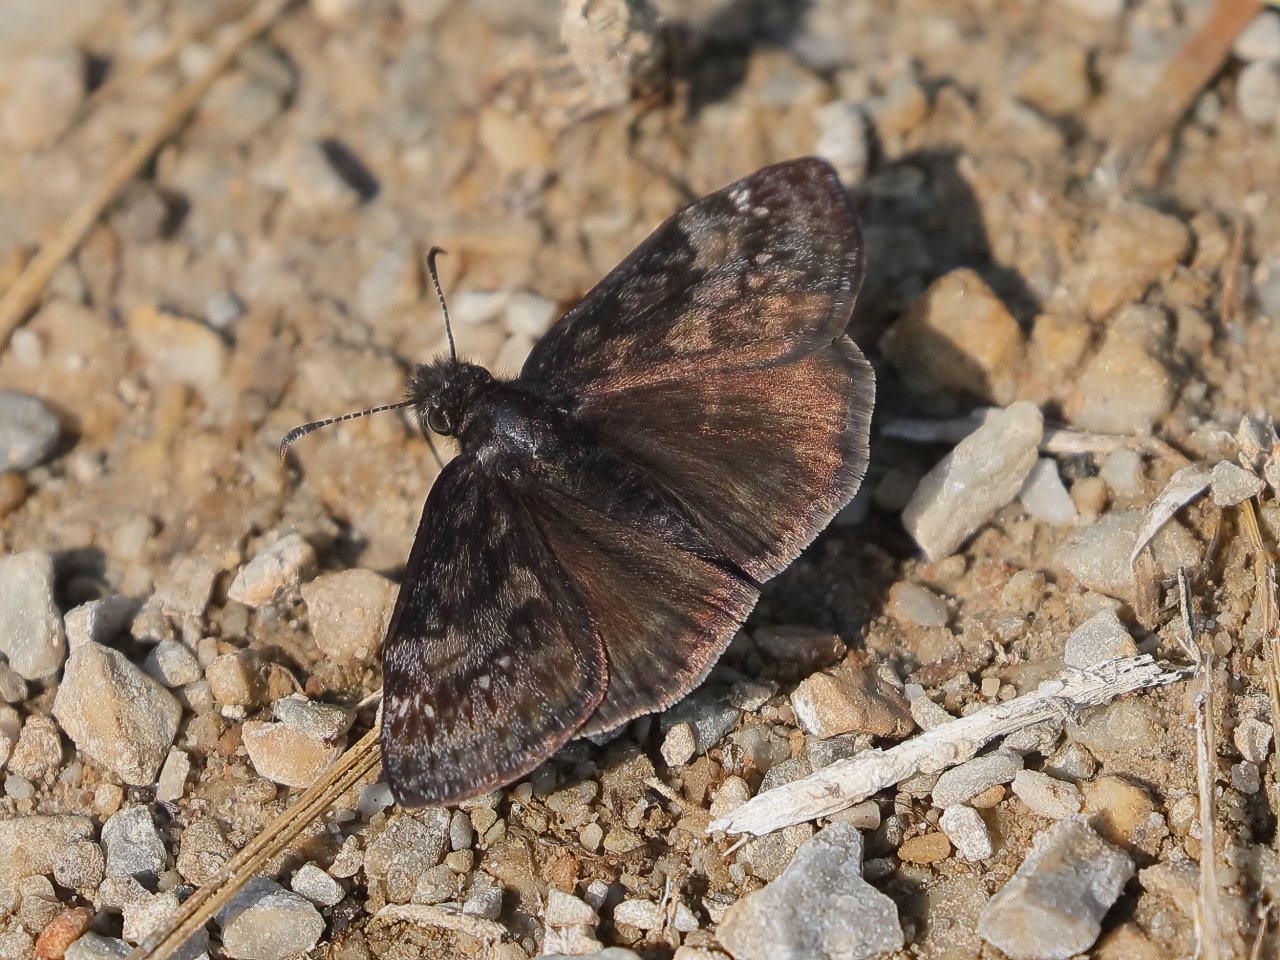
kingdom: Animalia
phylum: Arthropoda
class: Insecta
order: Lepidoptera
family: Hesperiidae
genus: Gesta
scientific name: Gesta
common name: Wild Indigo Duskywing
